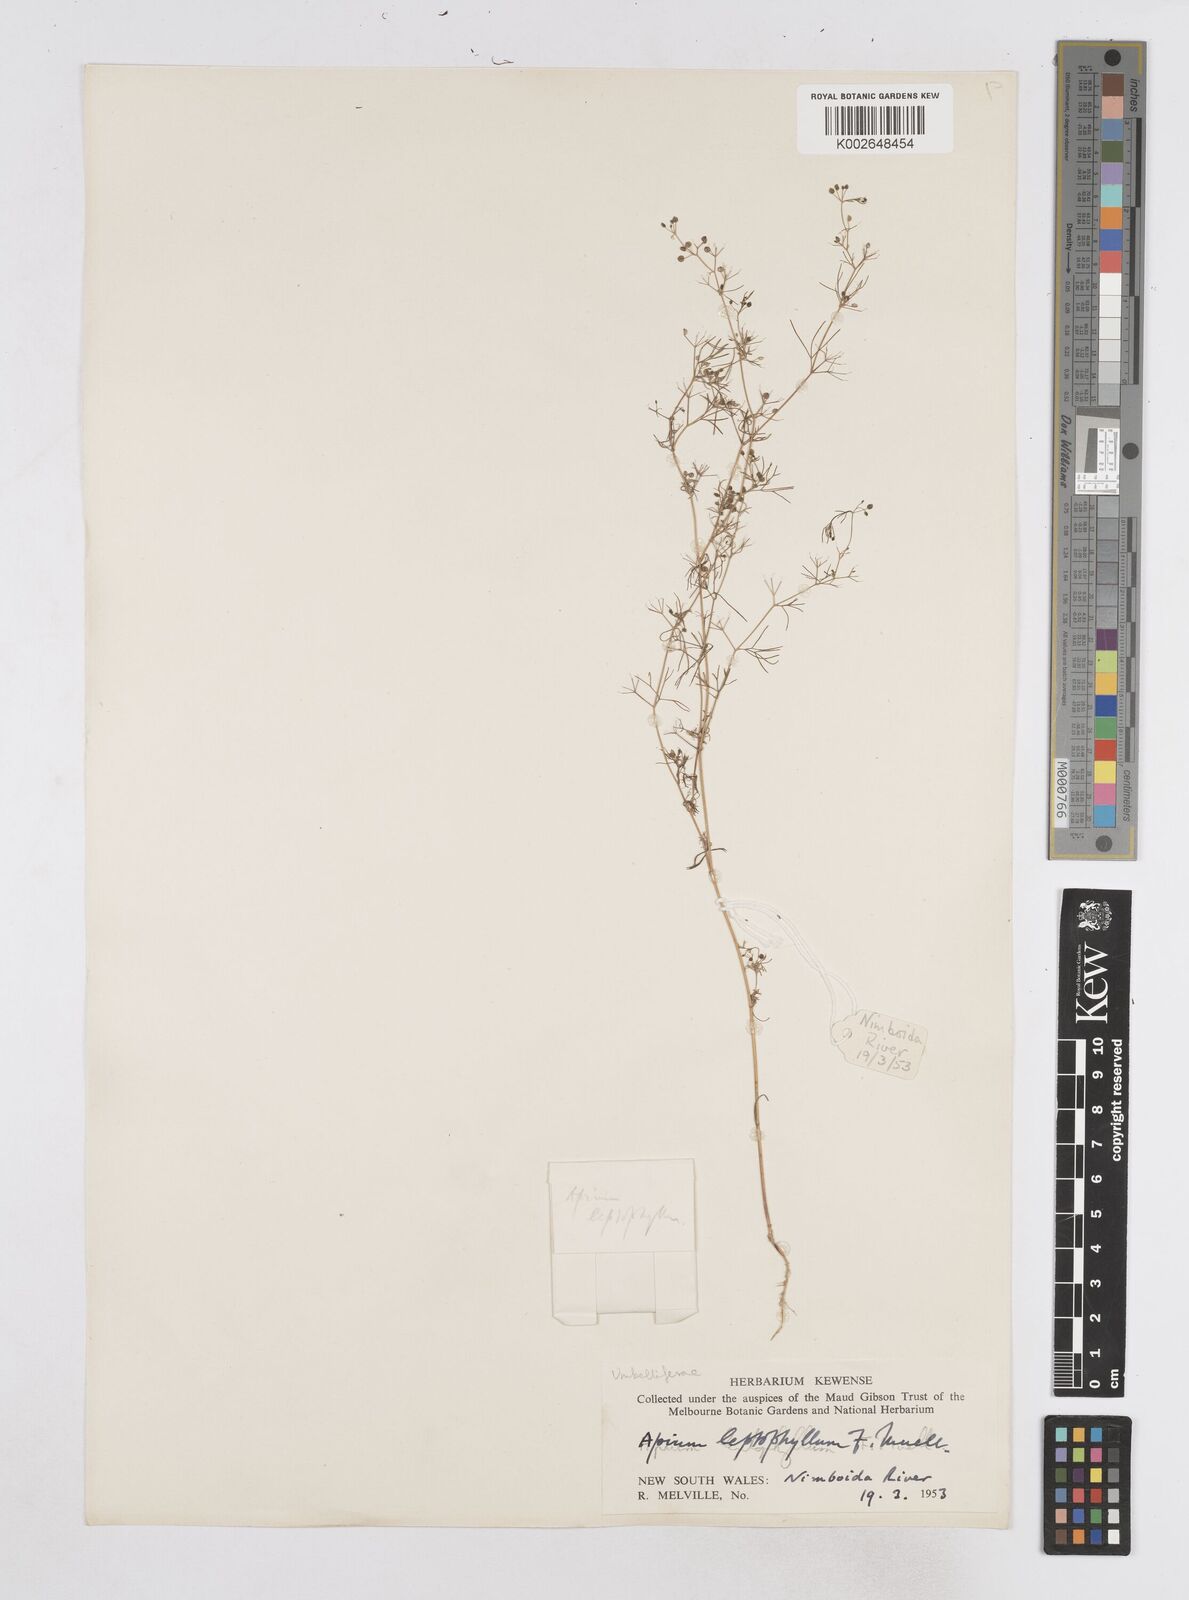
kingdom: Plantae
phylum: Tracheophyta
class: Magnoliopsida
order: Apiales
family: Apiaceae
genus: Cyclospermum
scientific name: Cyclospermum leptophyllum
